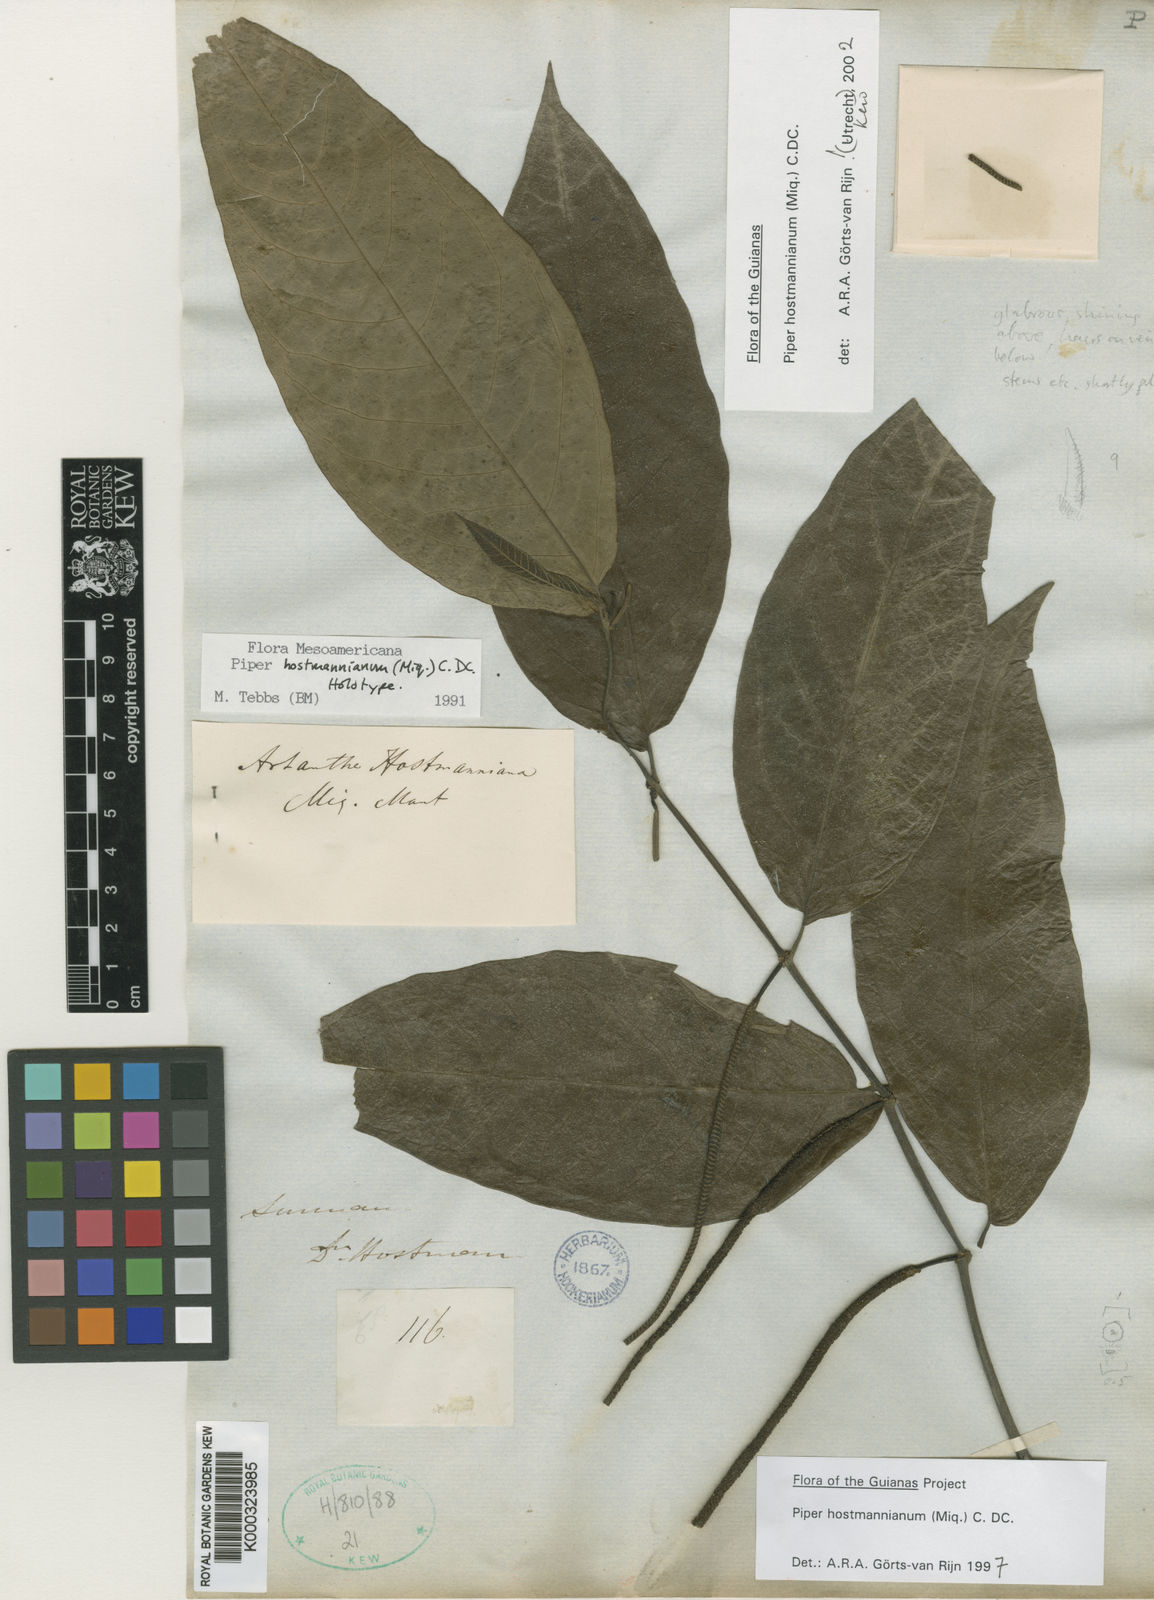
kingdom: Plantae
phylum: Tracheophyta
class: Magnoliopsida
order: Piperales
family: Piperaceae
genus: Piper
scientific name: Piper hostmannianum
